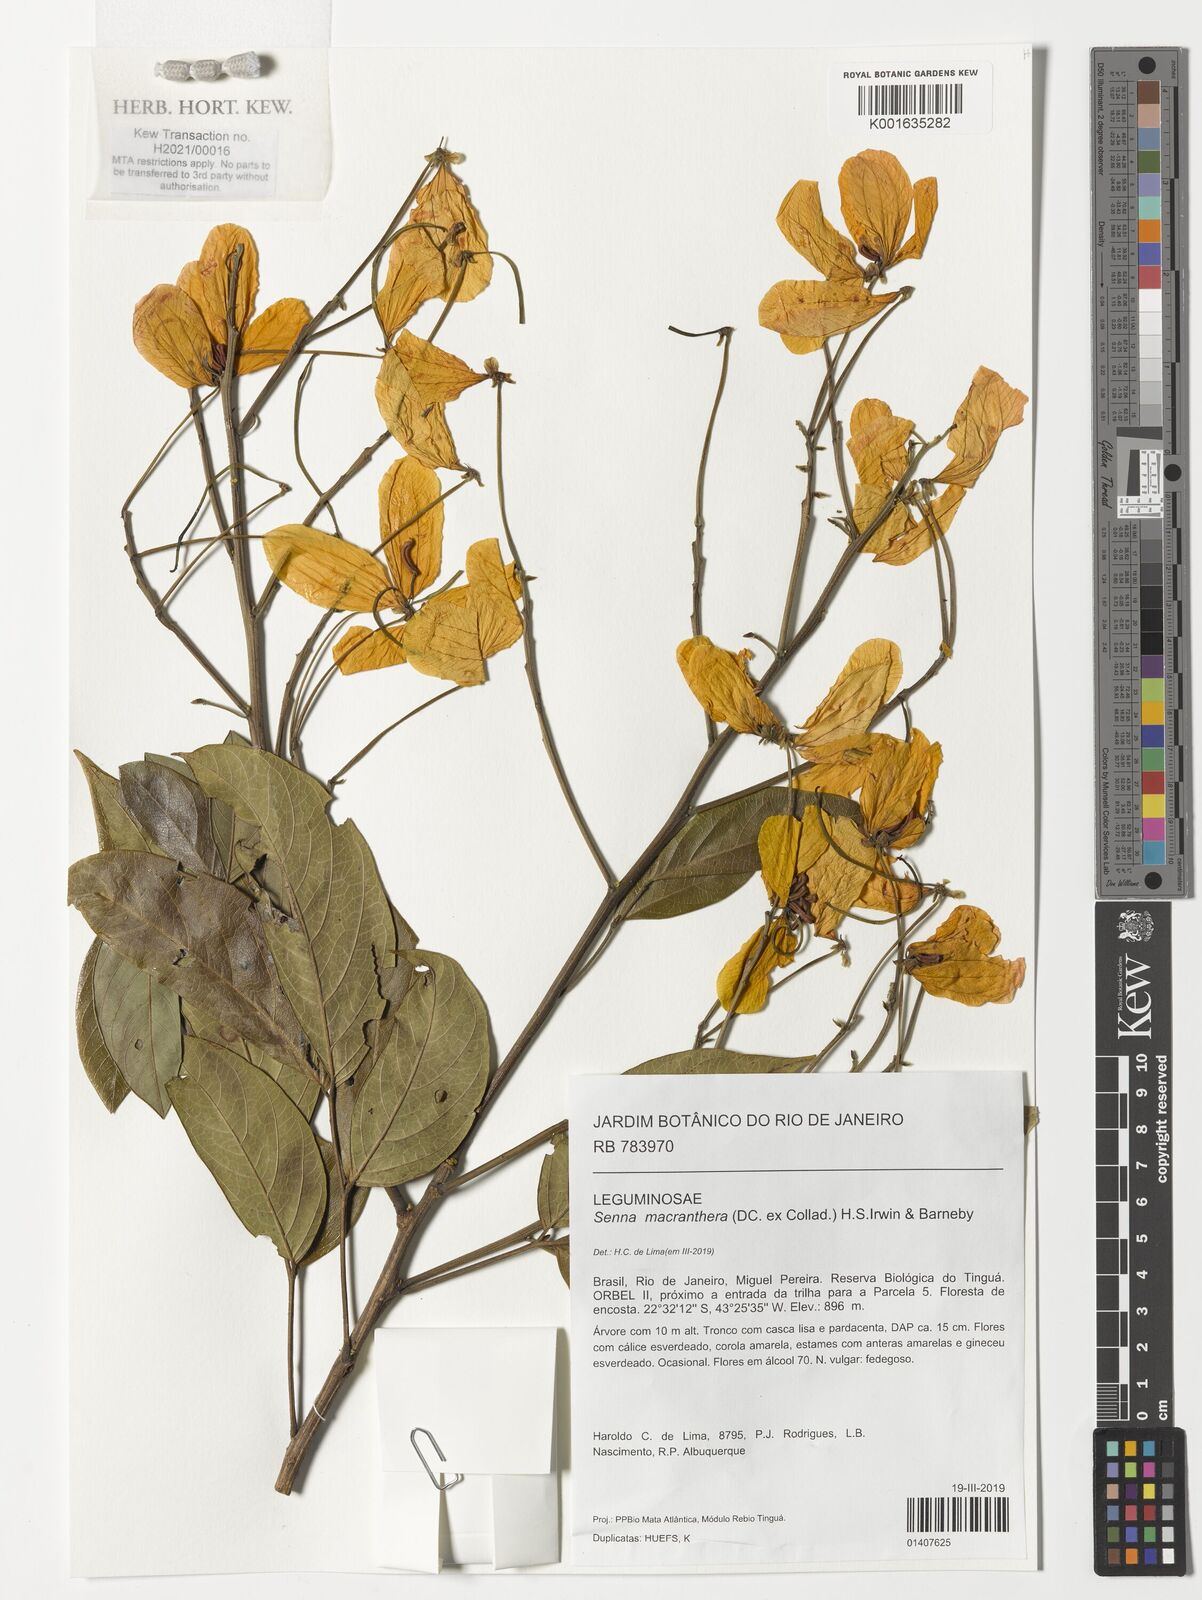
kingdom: Plantae
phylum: Tracheophyta
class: Magnoliopsida
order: Fabales
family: Fabaceae
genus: Senna
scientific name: Senna macranthera
